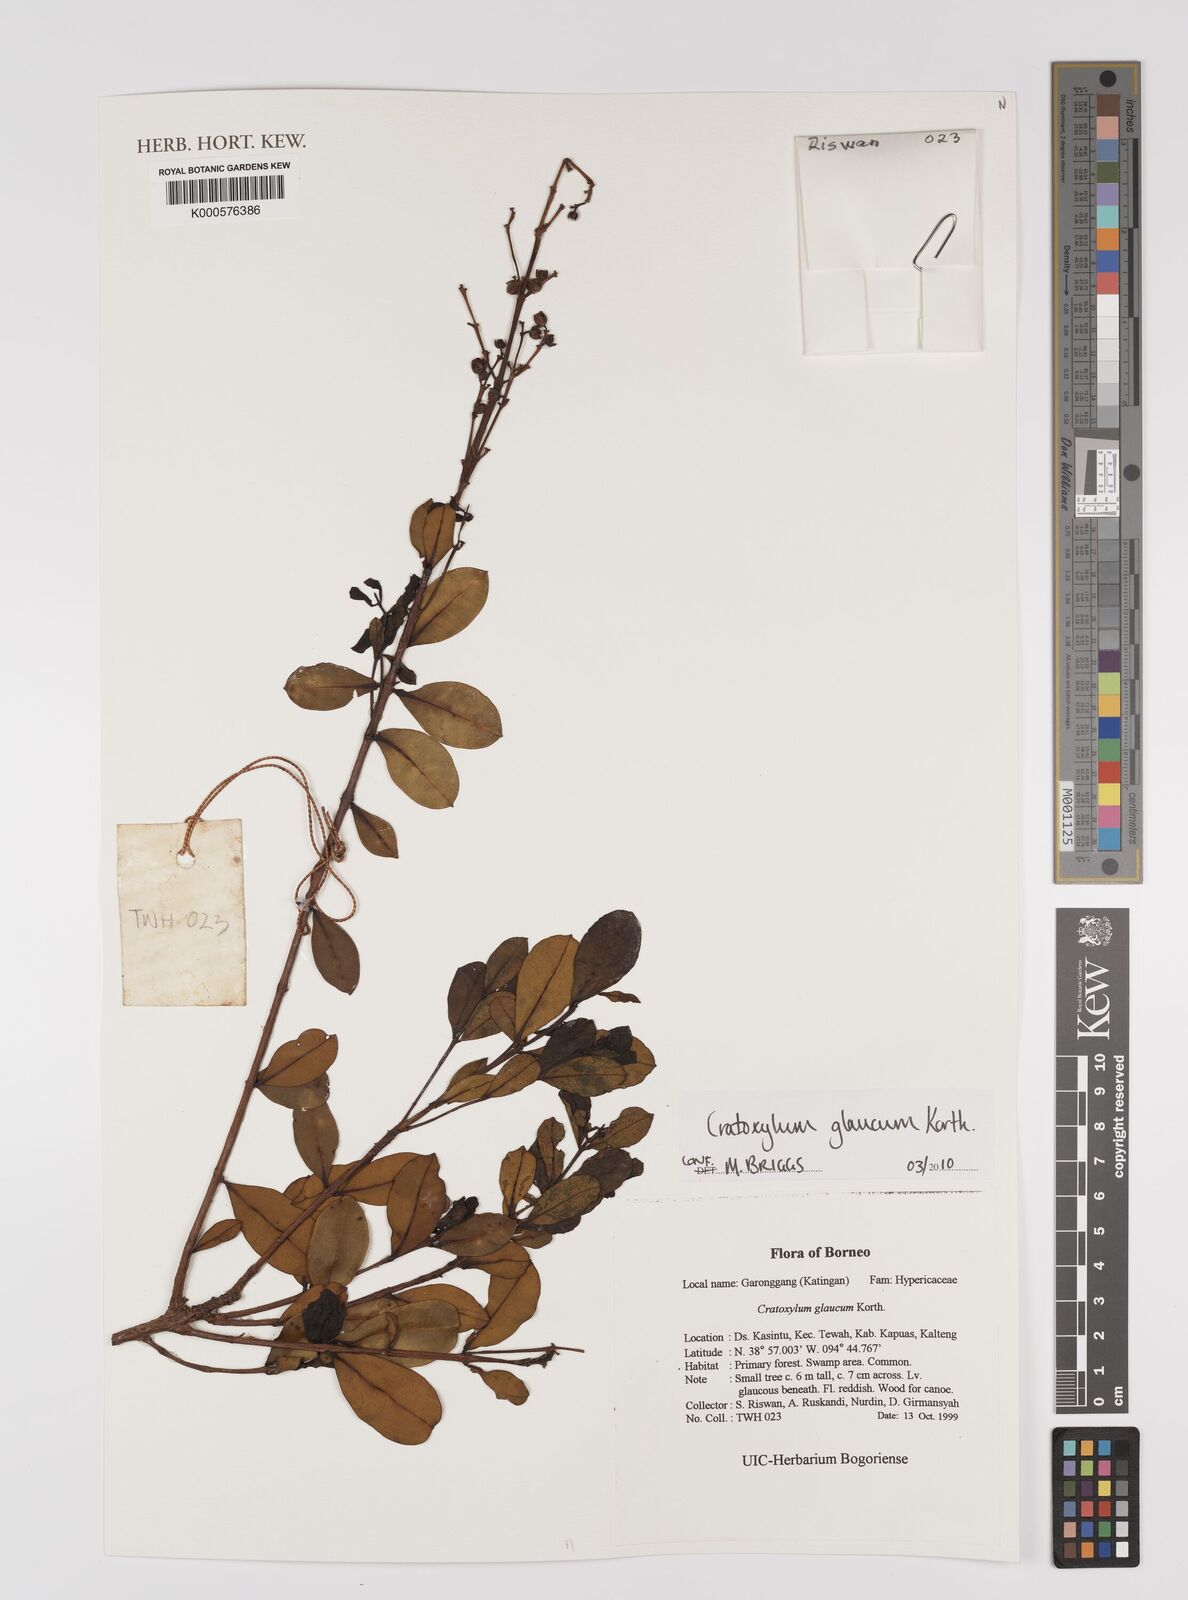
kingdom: Plantae
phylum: Tracheophyta
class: Magnoliopsida
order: Malpighiales
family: Hypericaceae
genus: Cratoxylum
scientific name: Cratoxylum glaucum
